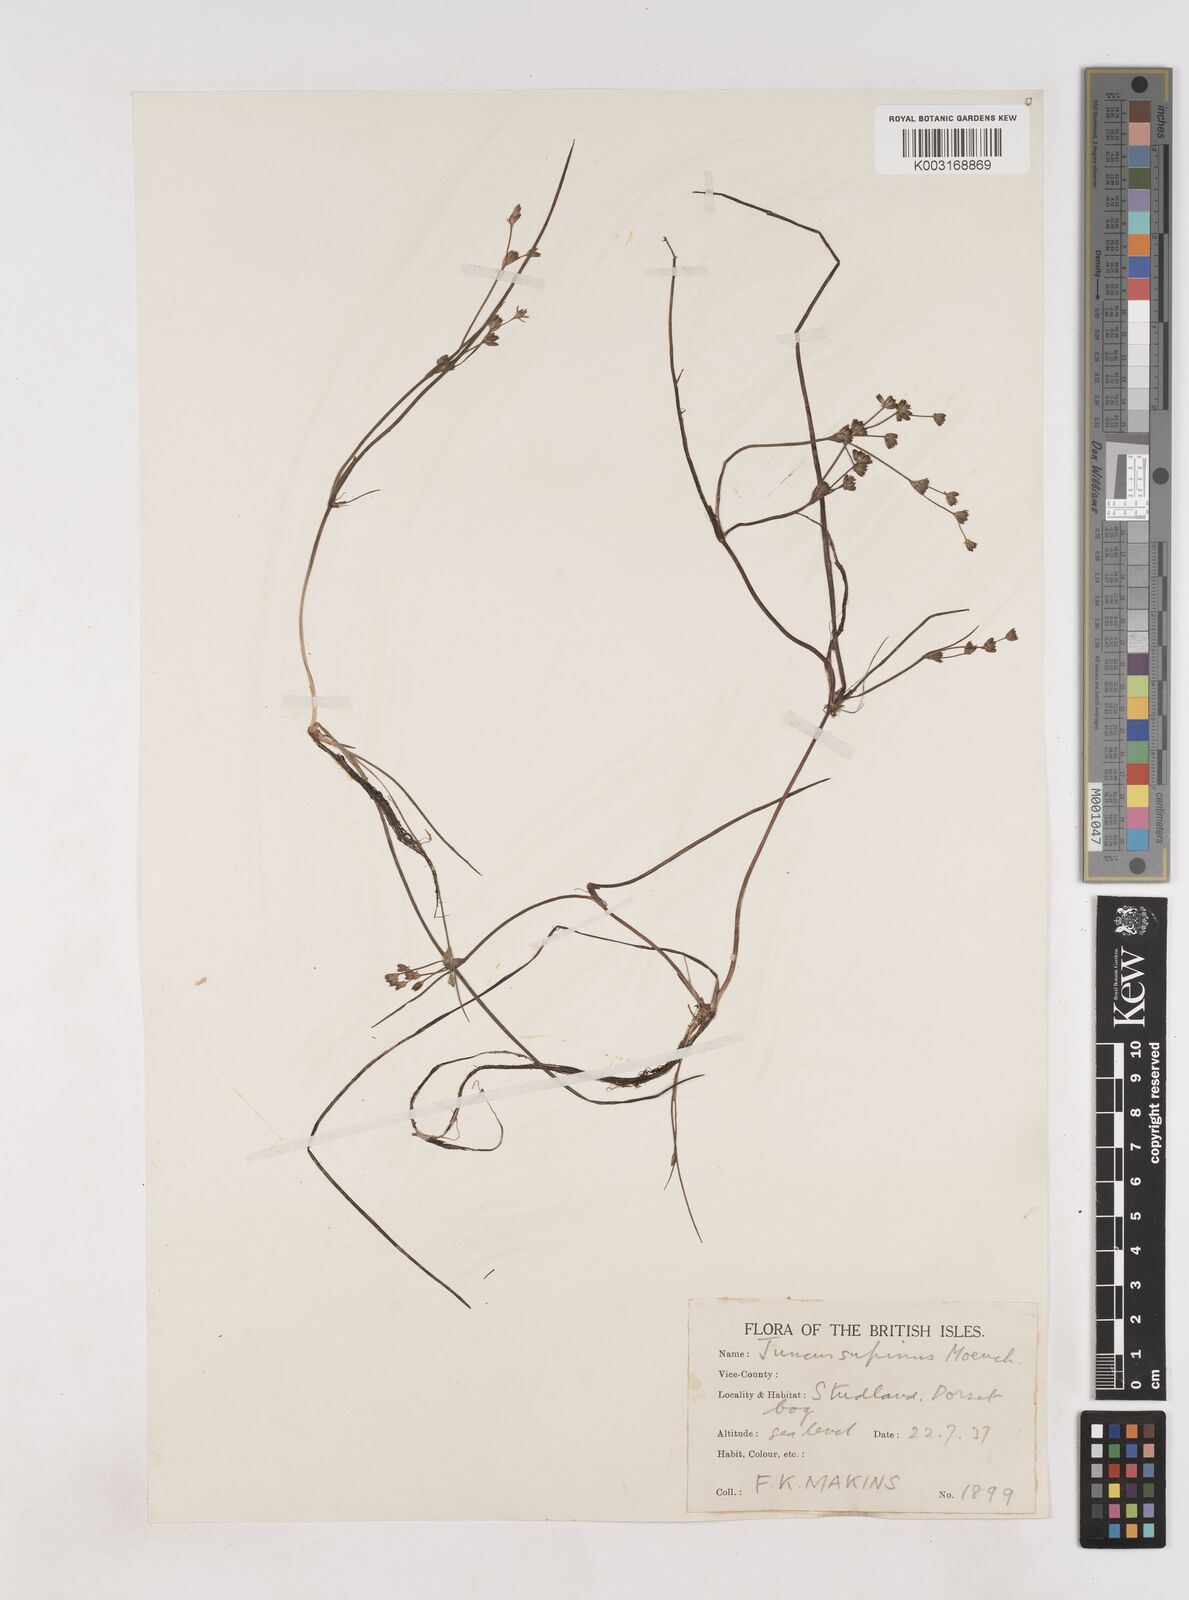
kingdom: Plantae
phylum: Tracheophyta
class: Liliopsida
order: Poales
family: Juncaceae
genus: Juncus
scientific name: Juncus bulbosus
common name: Bulbous rush
